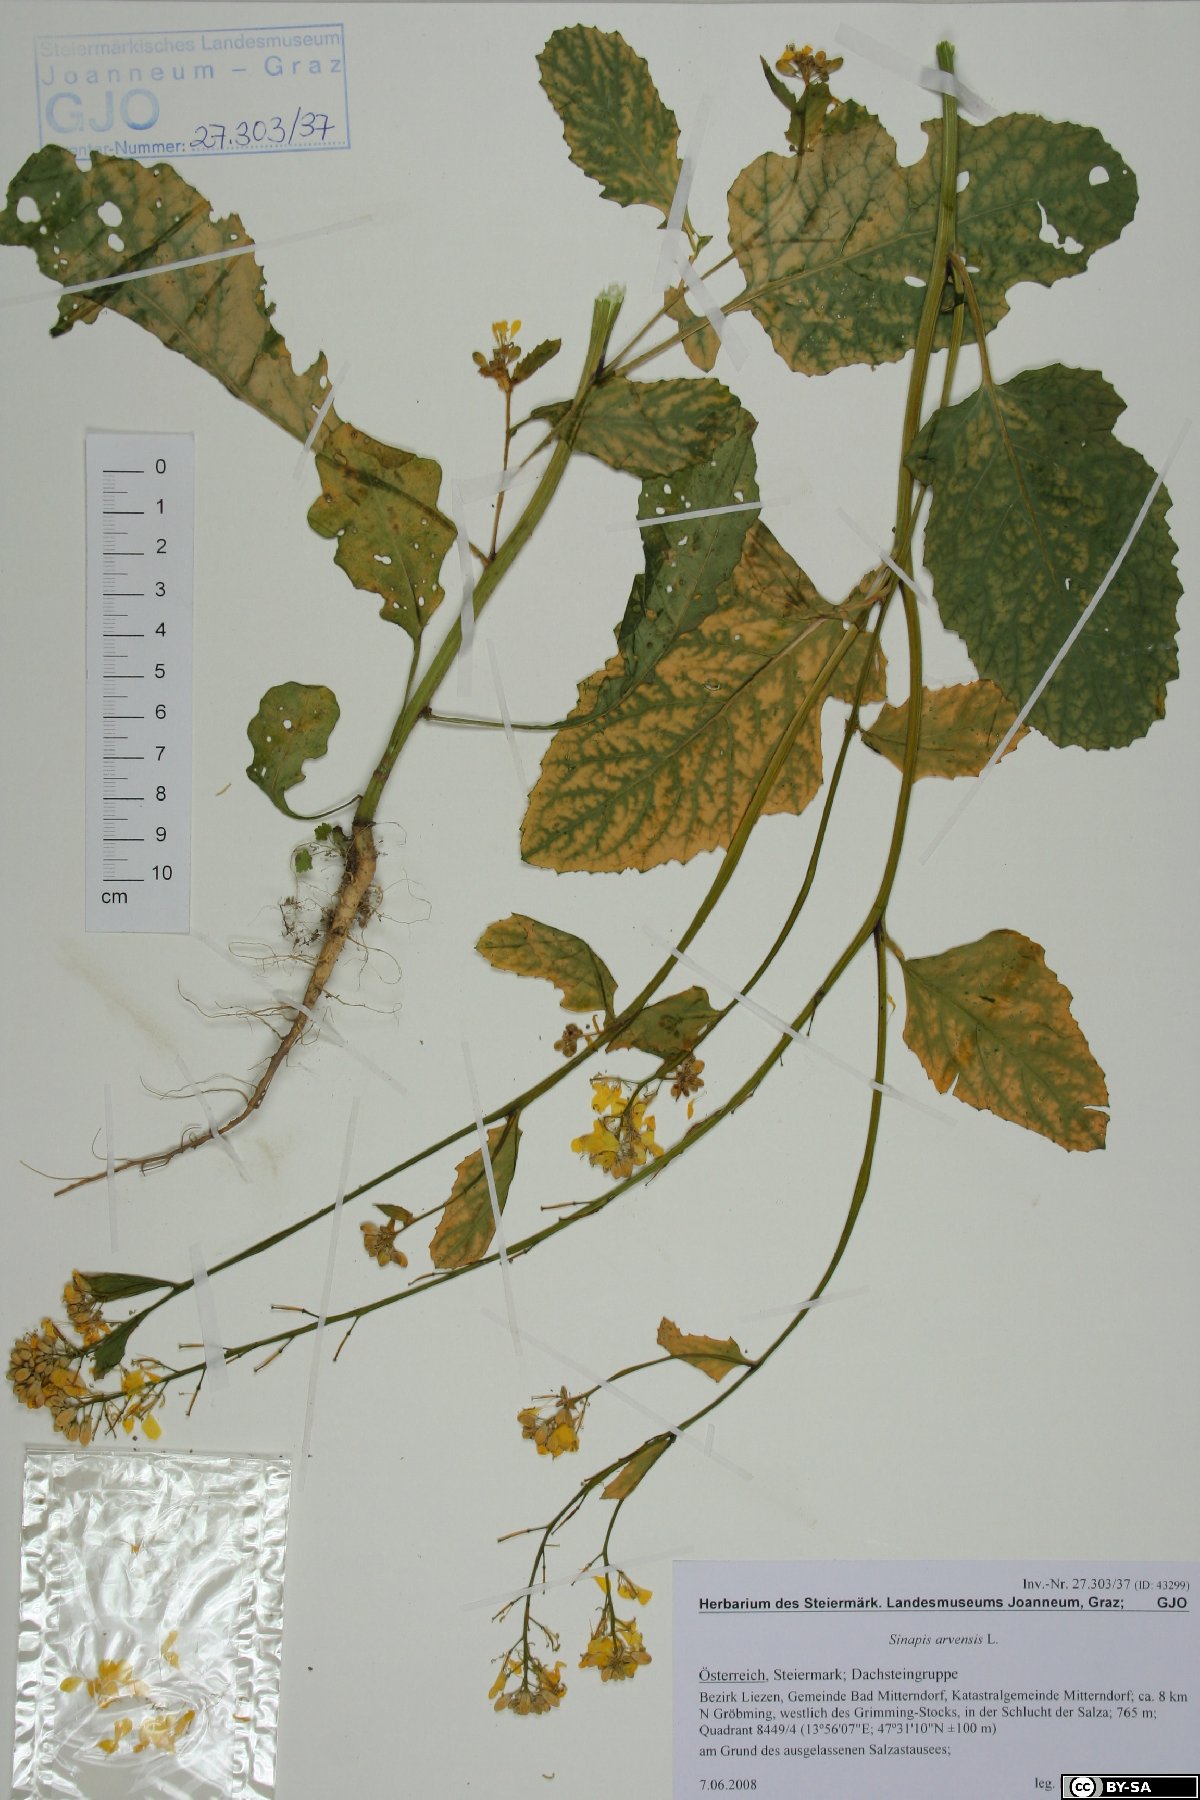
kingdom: Plantae
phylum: Tracheophyta
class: Magnoliopsida
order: Brassicales
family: Brassicaceae
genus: Sinapis
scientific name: Sinapis arvensis
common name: Charlock
